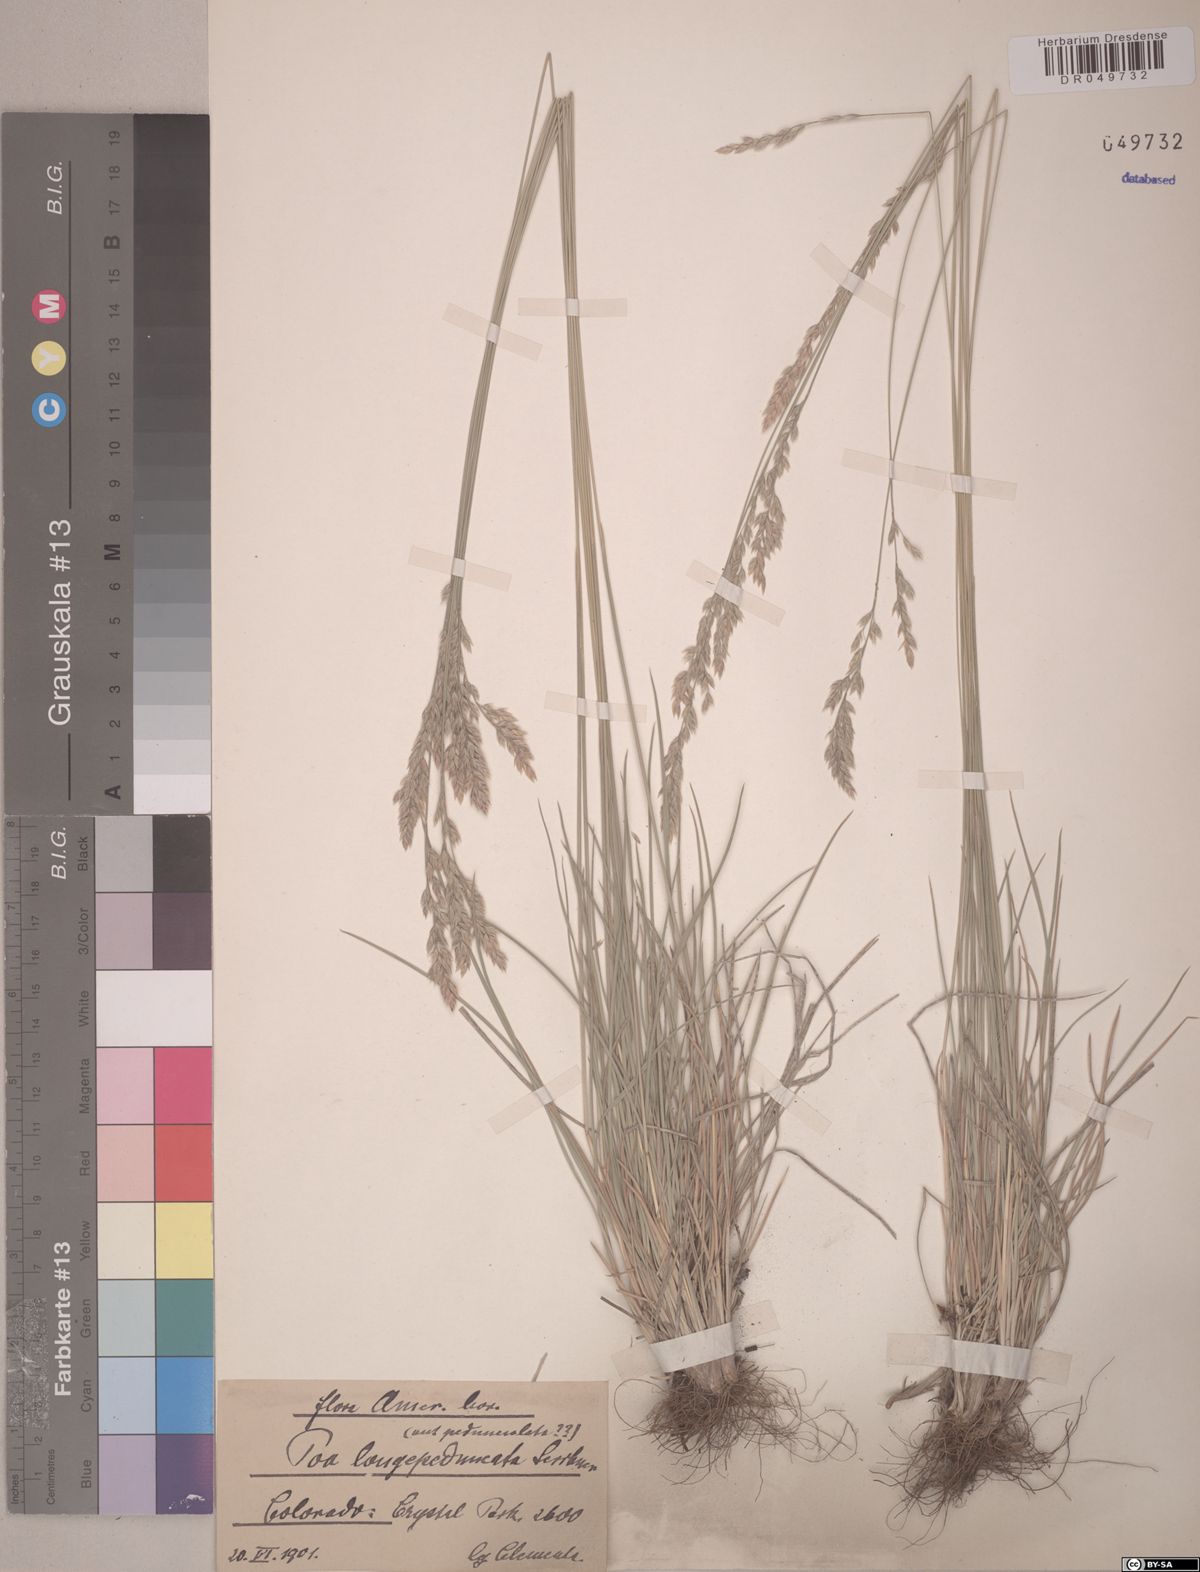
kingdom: Plantae
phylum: Tracheophyta
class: Liliopsida
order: Poales
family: Poaceae
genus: Poa
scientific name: Poa fendleriana
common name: Mutton bluegrass
